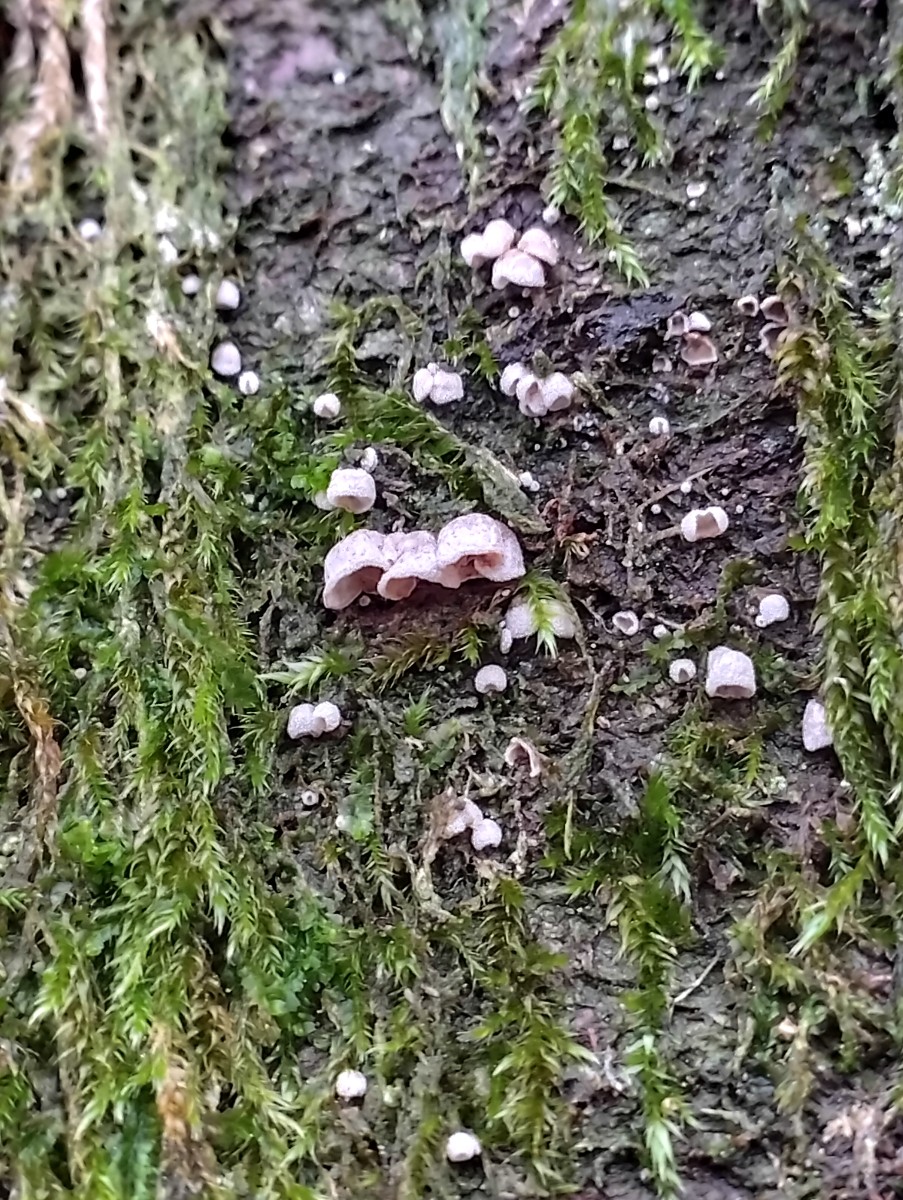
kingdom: Fungi
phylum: Basidiomycota
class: Agaricomycetes
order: Agaricales
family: Chromocyphellaceae
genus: Chromocyphella
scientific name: Chromocyphella muscicola
